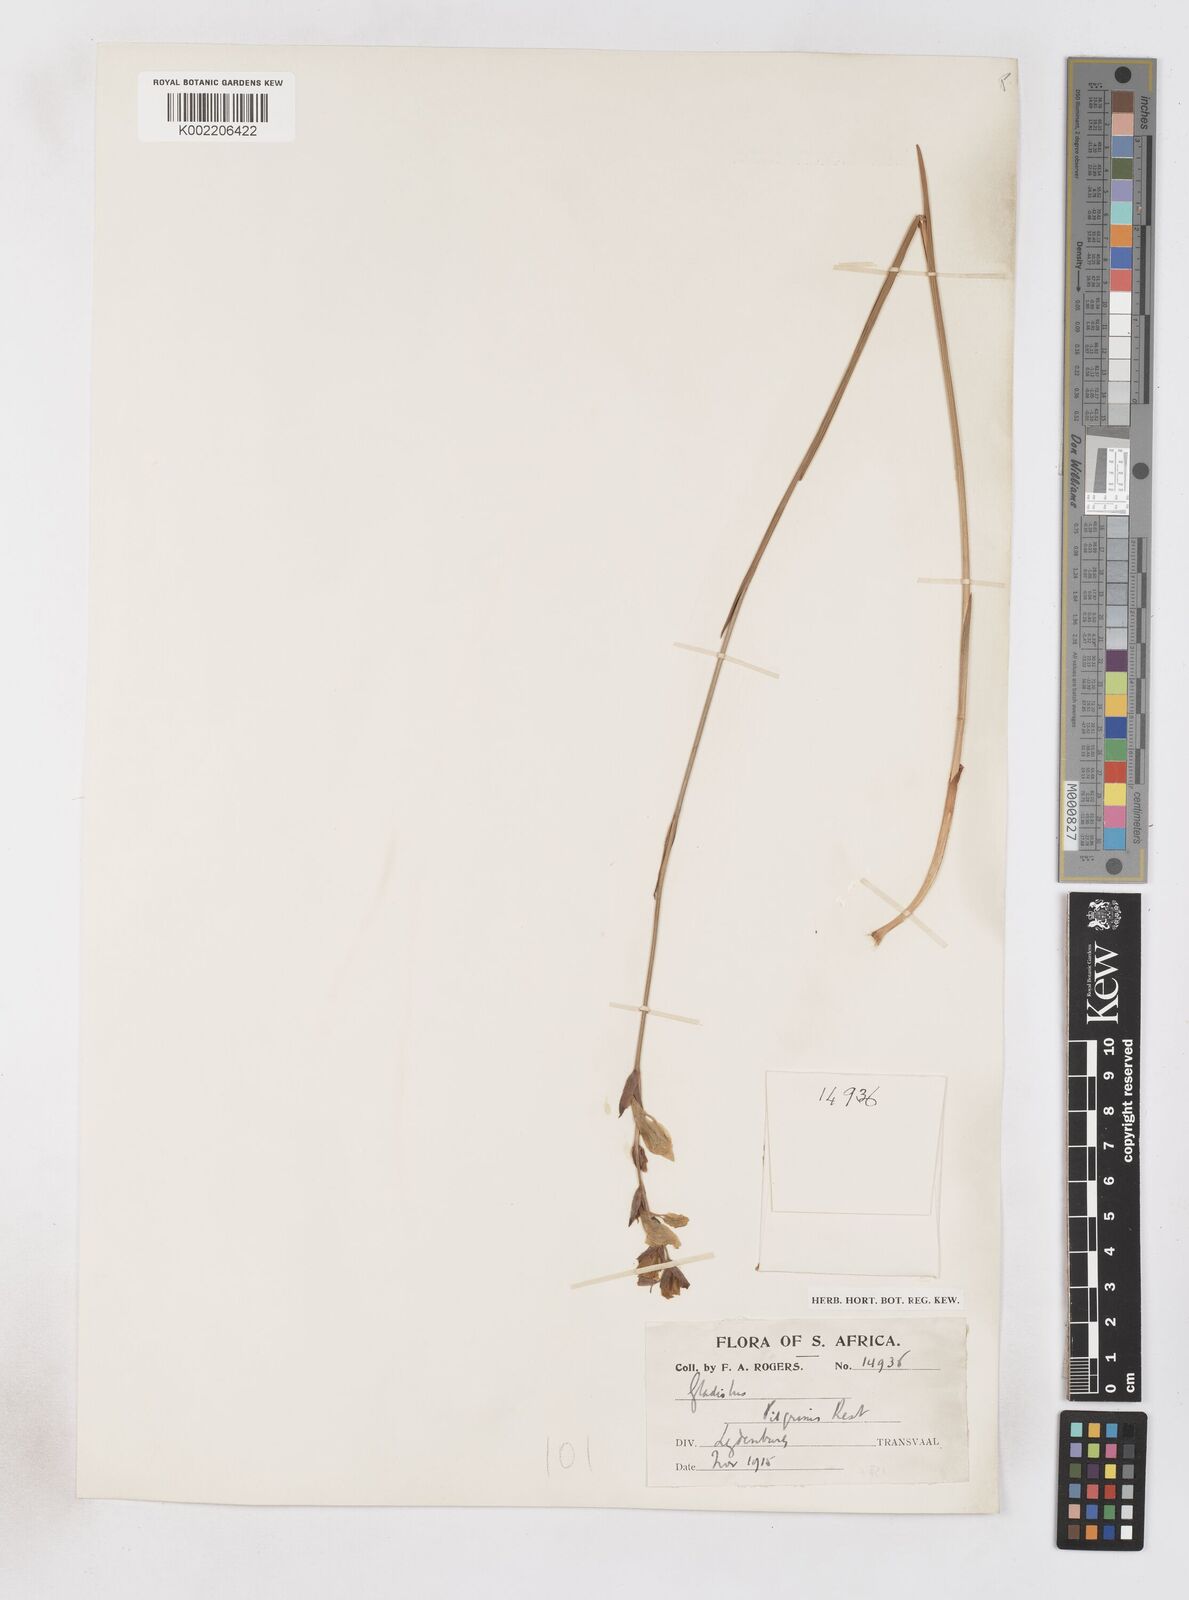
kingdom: Plantae
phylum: Tracheophyta
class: Liliopsida
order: Asparagales
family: Iridaceae
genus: Gladiolus
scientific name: Gladiolus woodii
